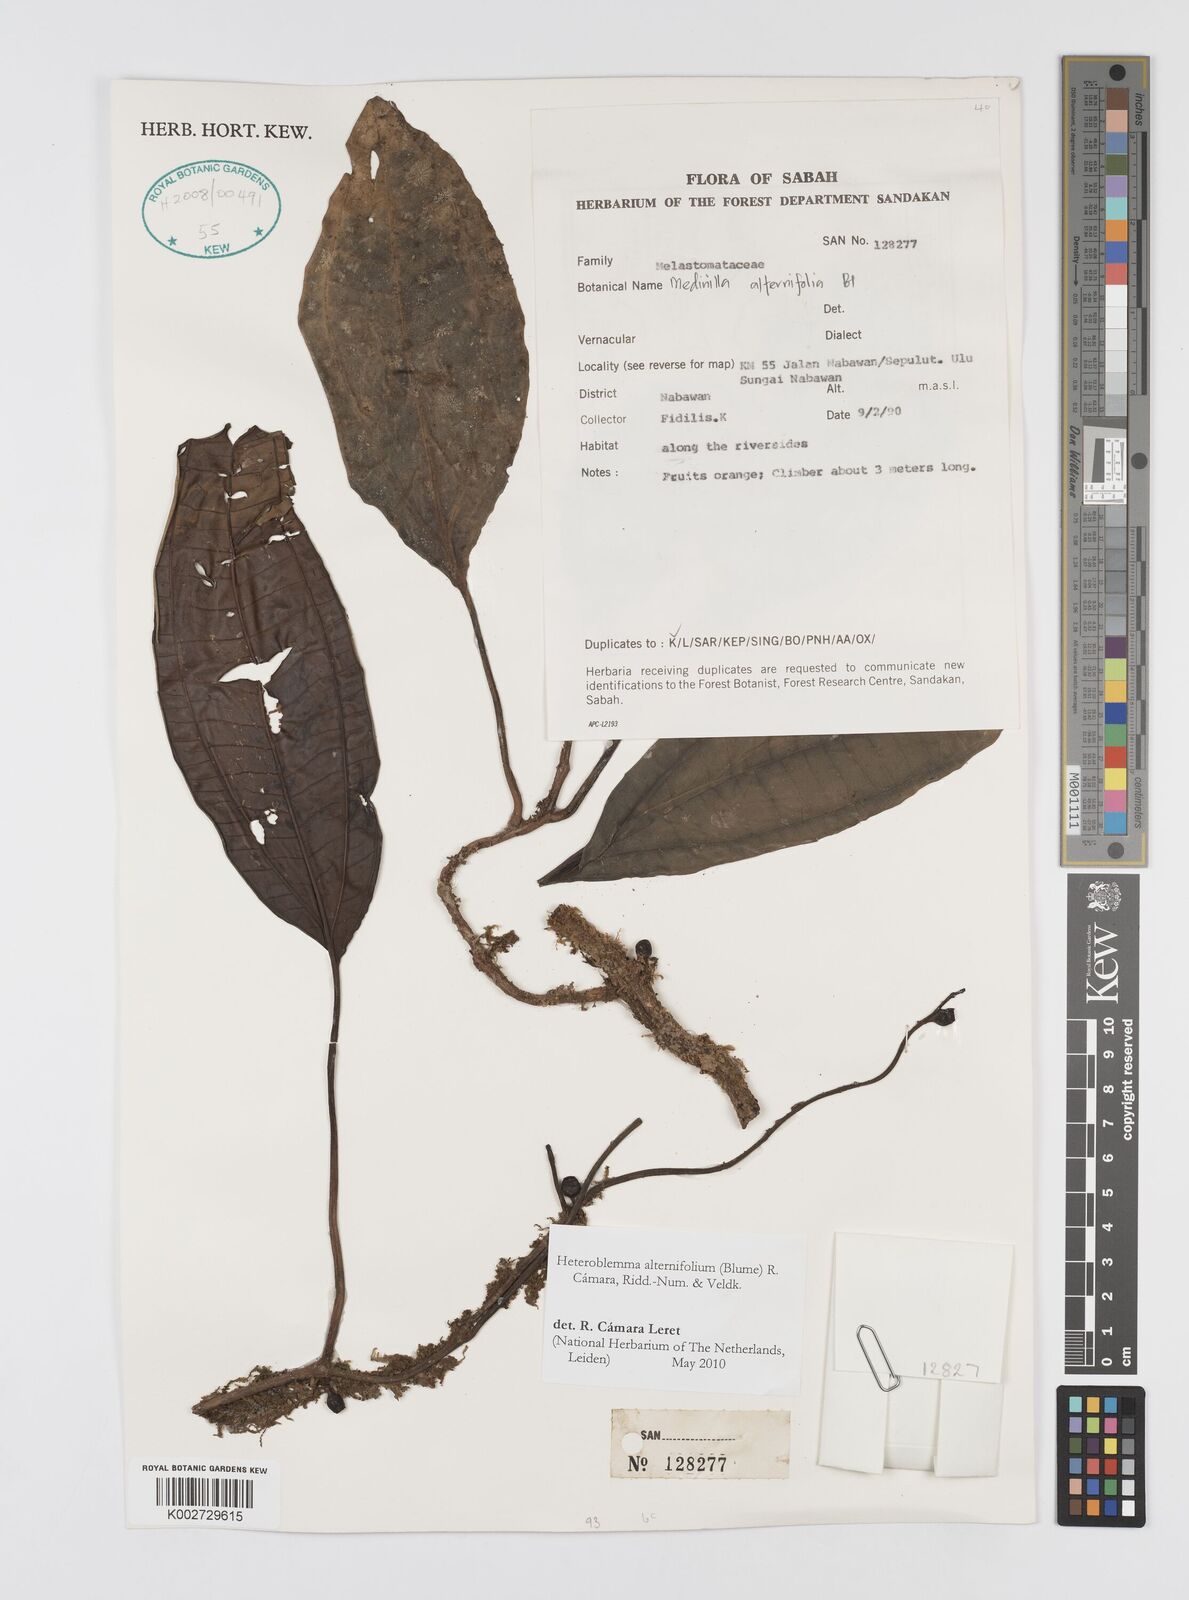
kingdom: Plantae
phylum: Tracheophyta
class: Magnoliopsida
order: Myrtales
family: Melastomataceae
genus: Heteroblemma
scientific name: Heteroblemma alternifolium
